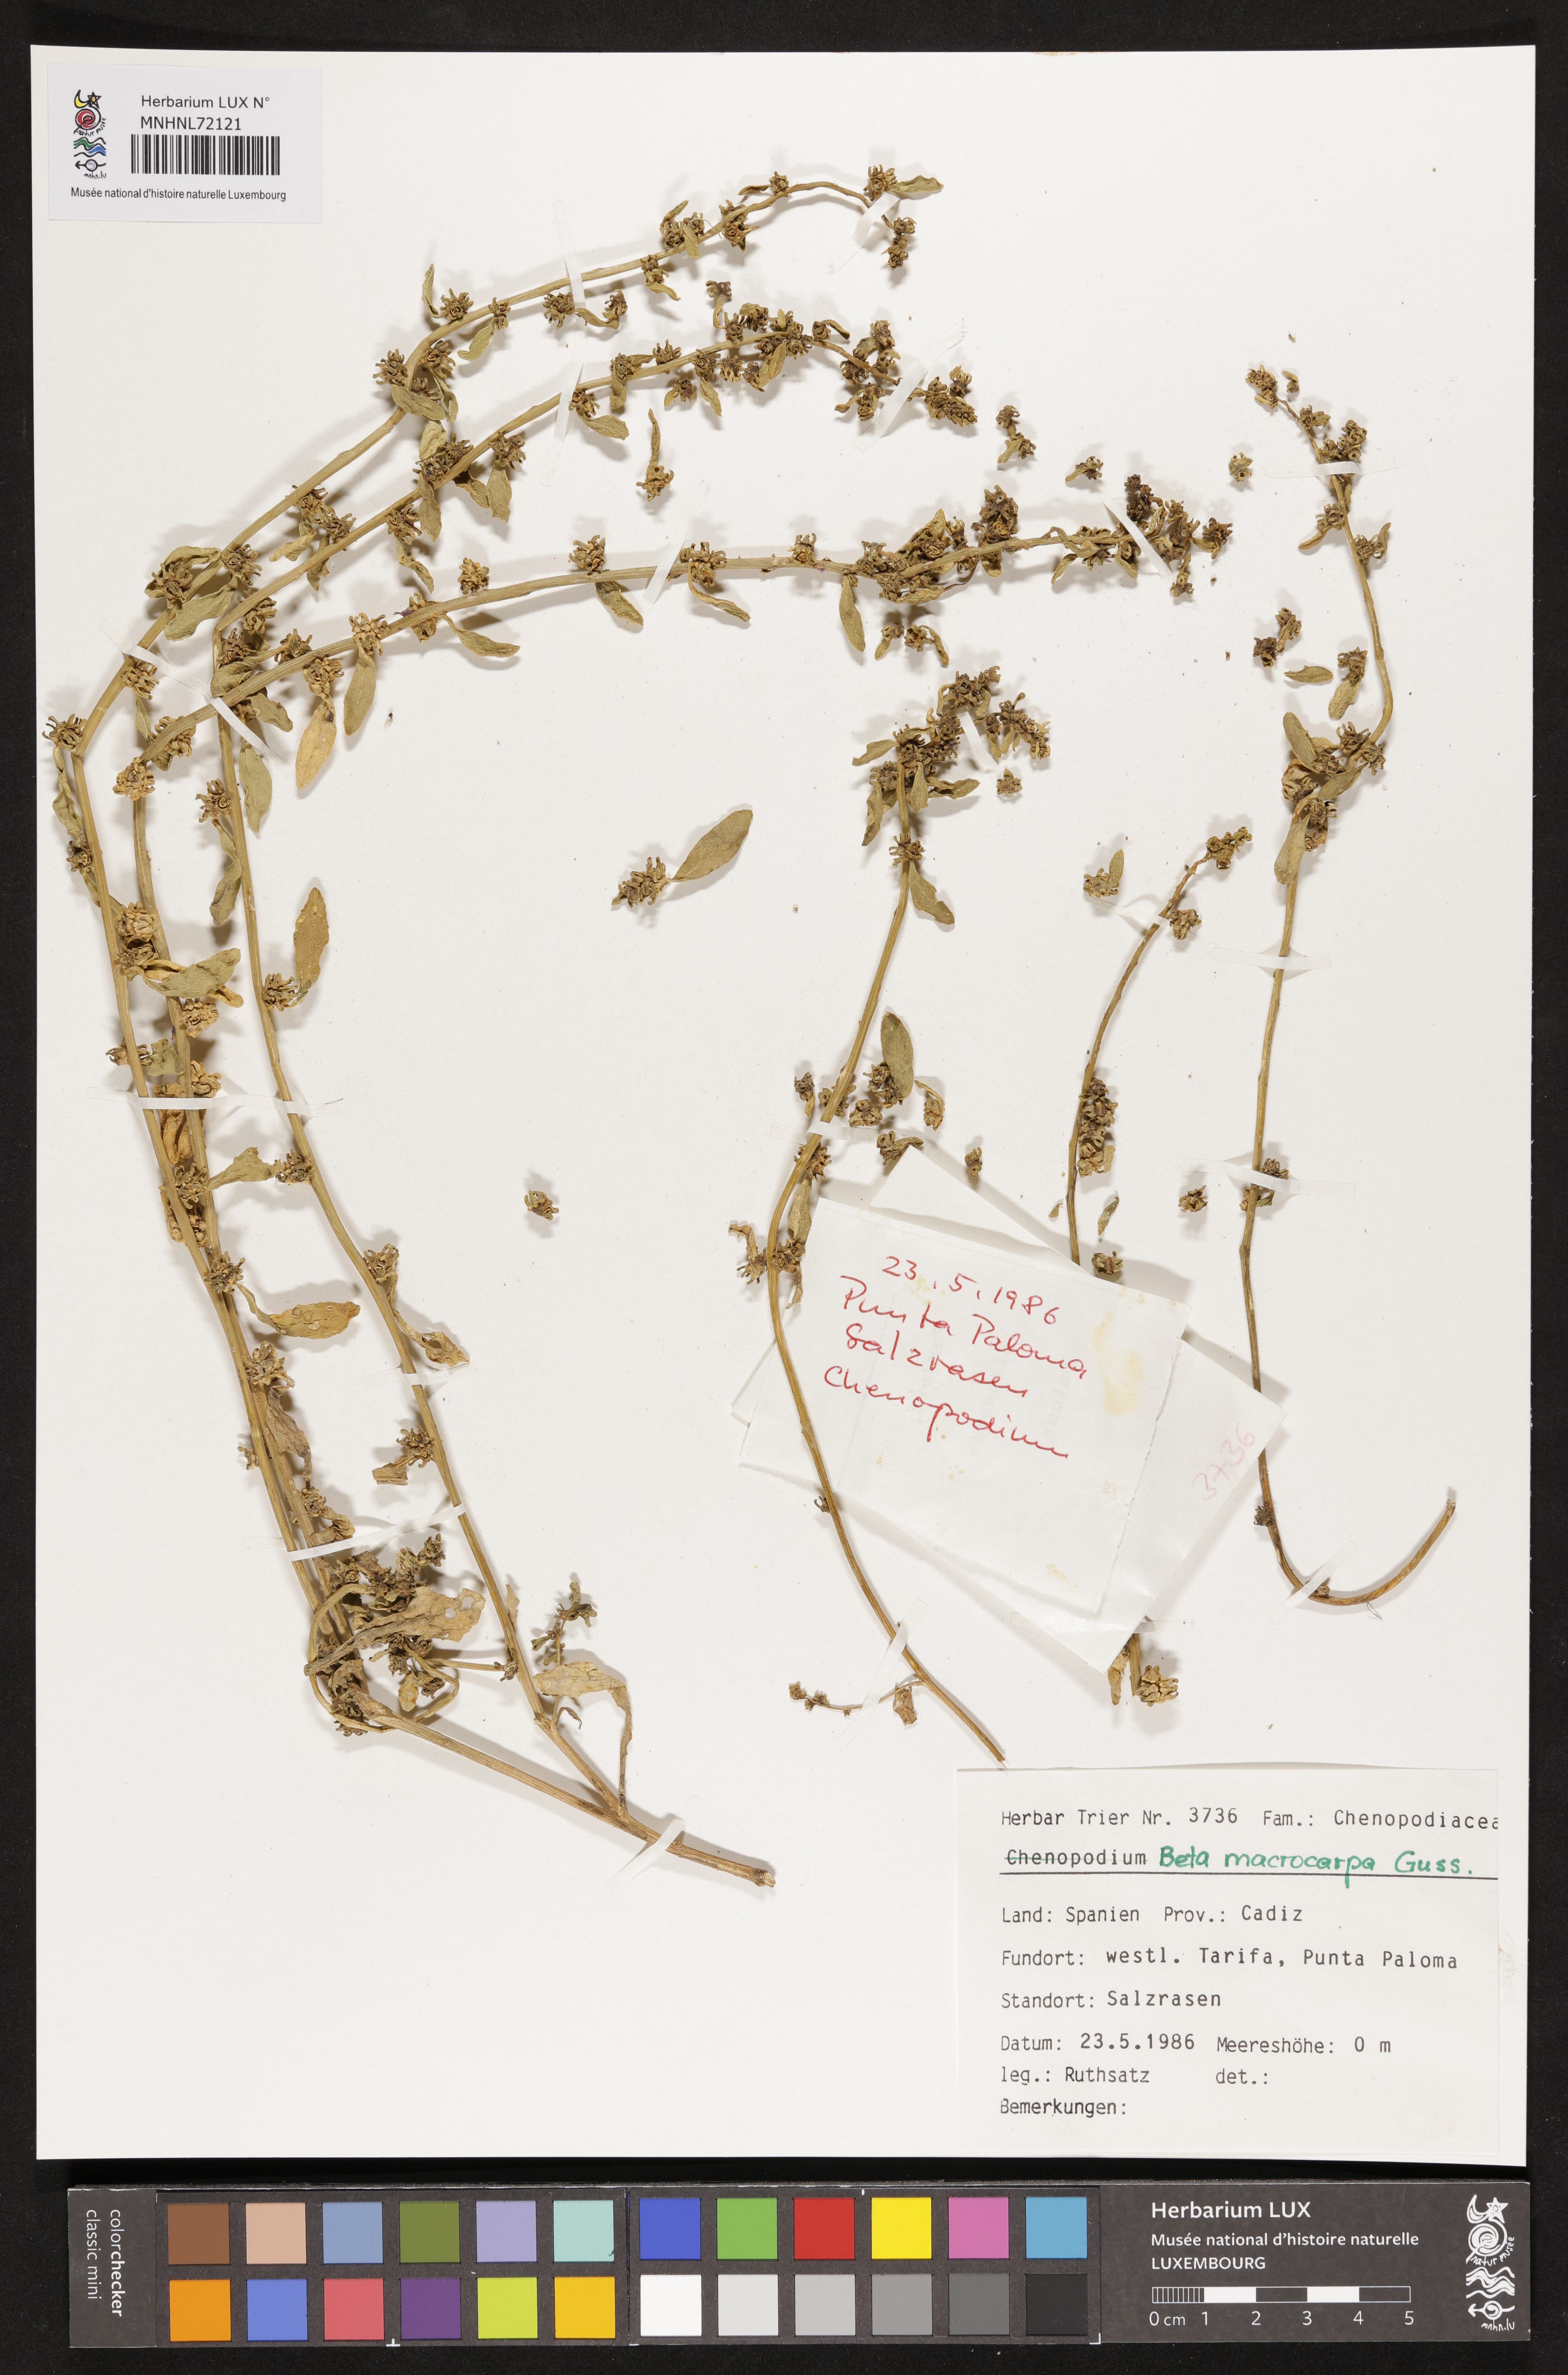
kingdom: Plantae
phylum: Tracheophyta
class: Magnoliopsida
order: Caryophyllales
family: Amaranthaceae
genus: Beta
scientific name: Beta macrocarpa
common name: Beet
